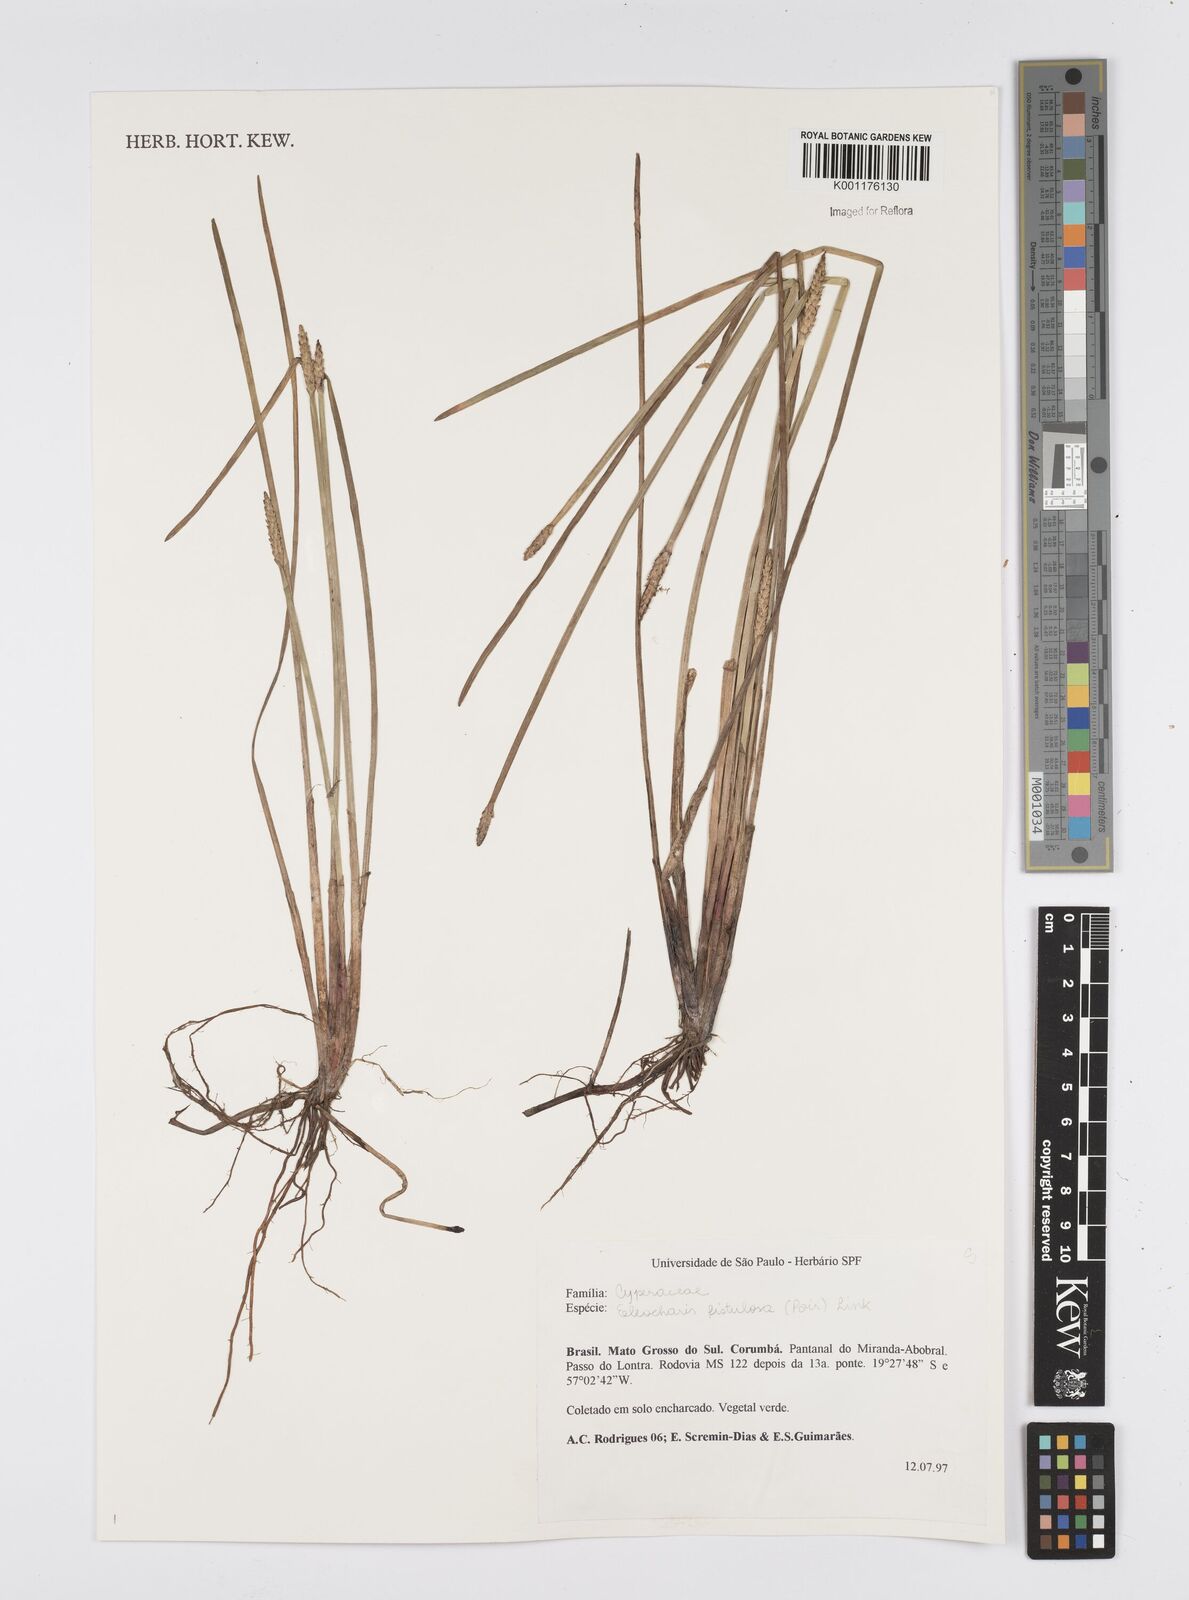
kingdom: Plantae
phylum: Tracheophyta
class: Liliopsida
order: Poales
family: Cyperaceae
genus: Eleocharis
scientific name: Eleocharis acutangula
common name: Acute spikerush
